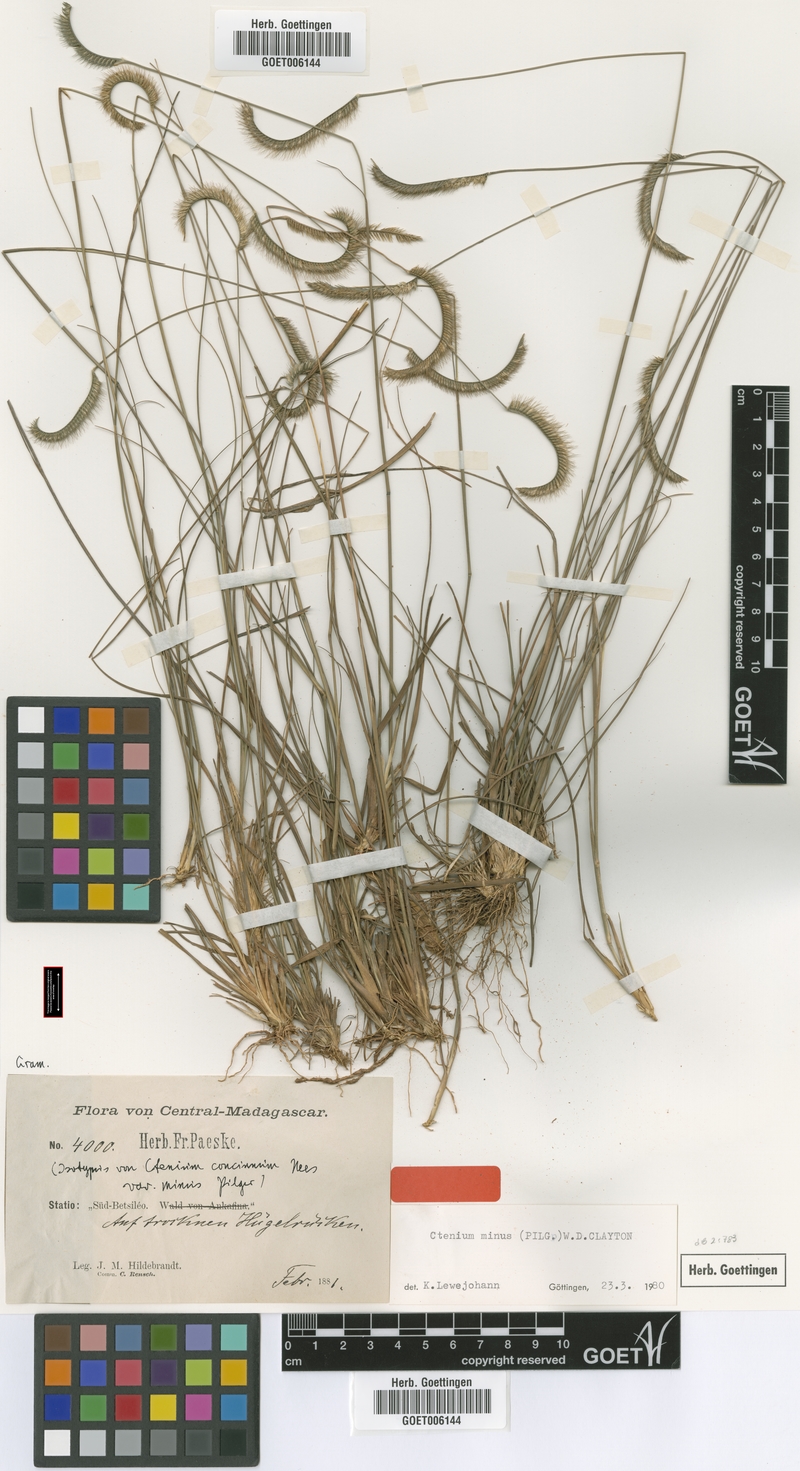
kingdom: Plantae
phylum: Tracheophyta
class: Liliopsida
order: Poales
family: Poaceae
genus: Ctenium
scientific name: Ctenium concinnum
